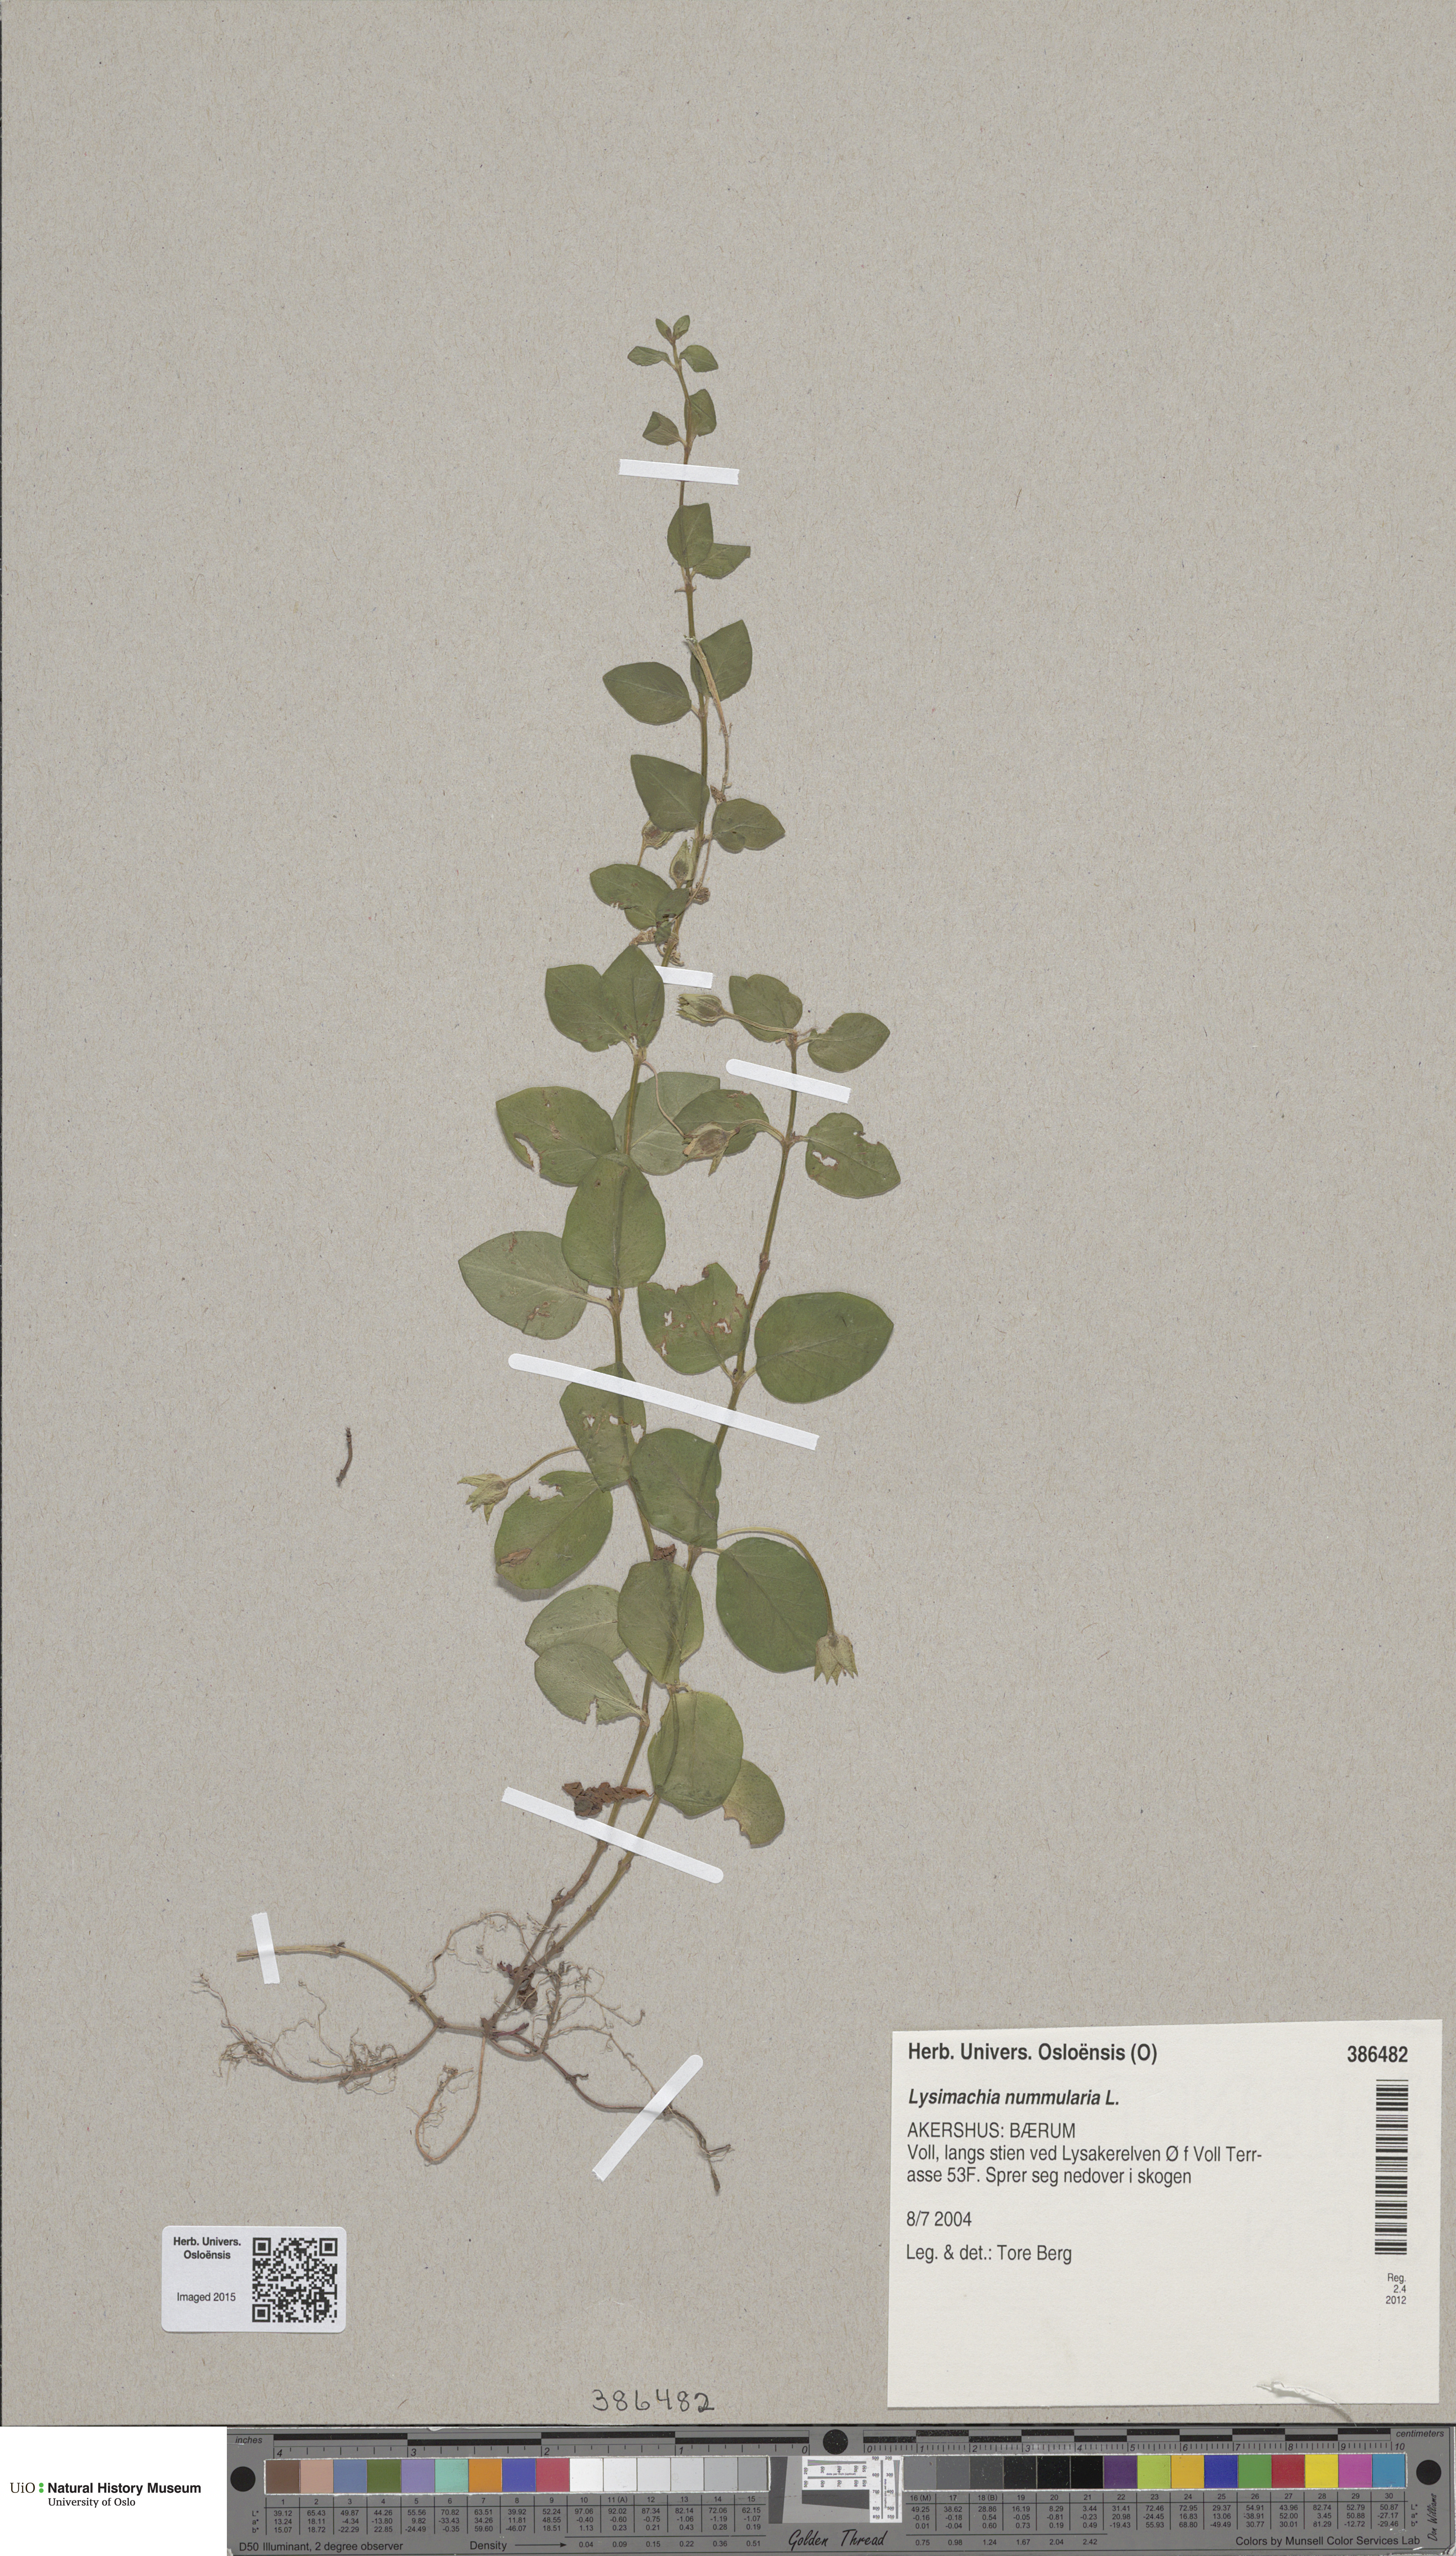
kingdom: Plantae
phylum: Tracheophyta
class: Magnoliopsida
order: Ericales
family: Primulaceae
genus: Lysimachia
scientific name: Lysimachia nummularia
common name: Moneywort
